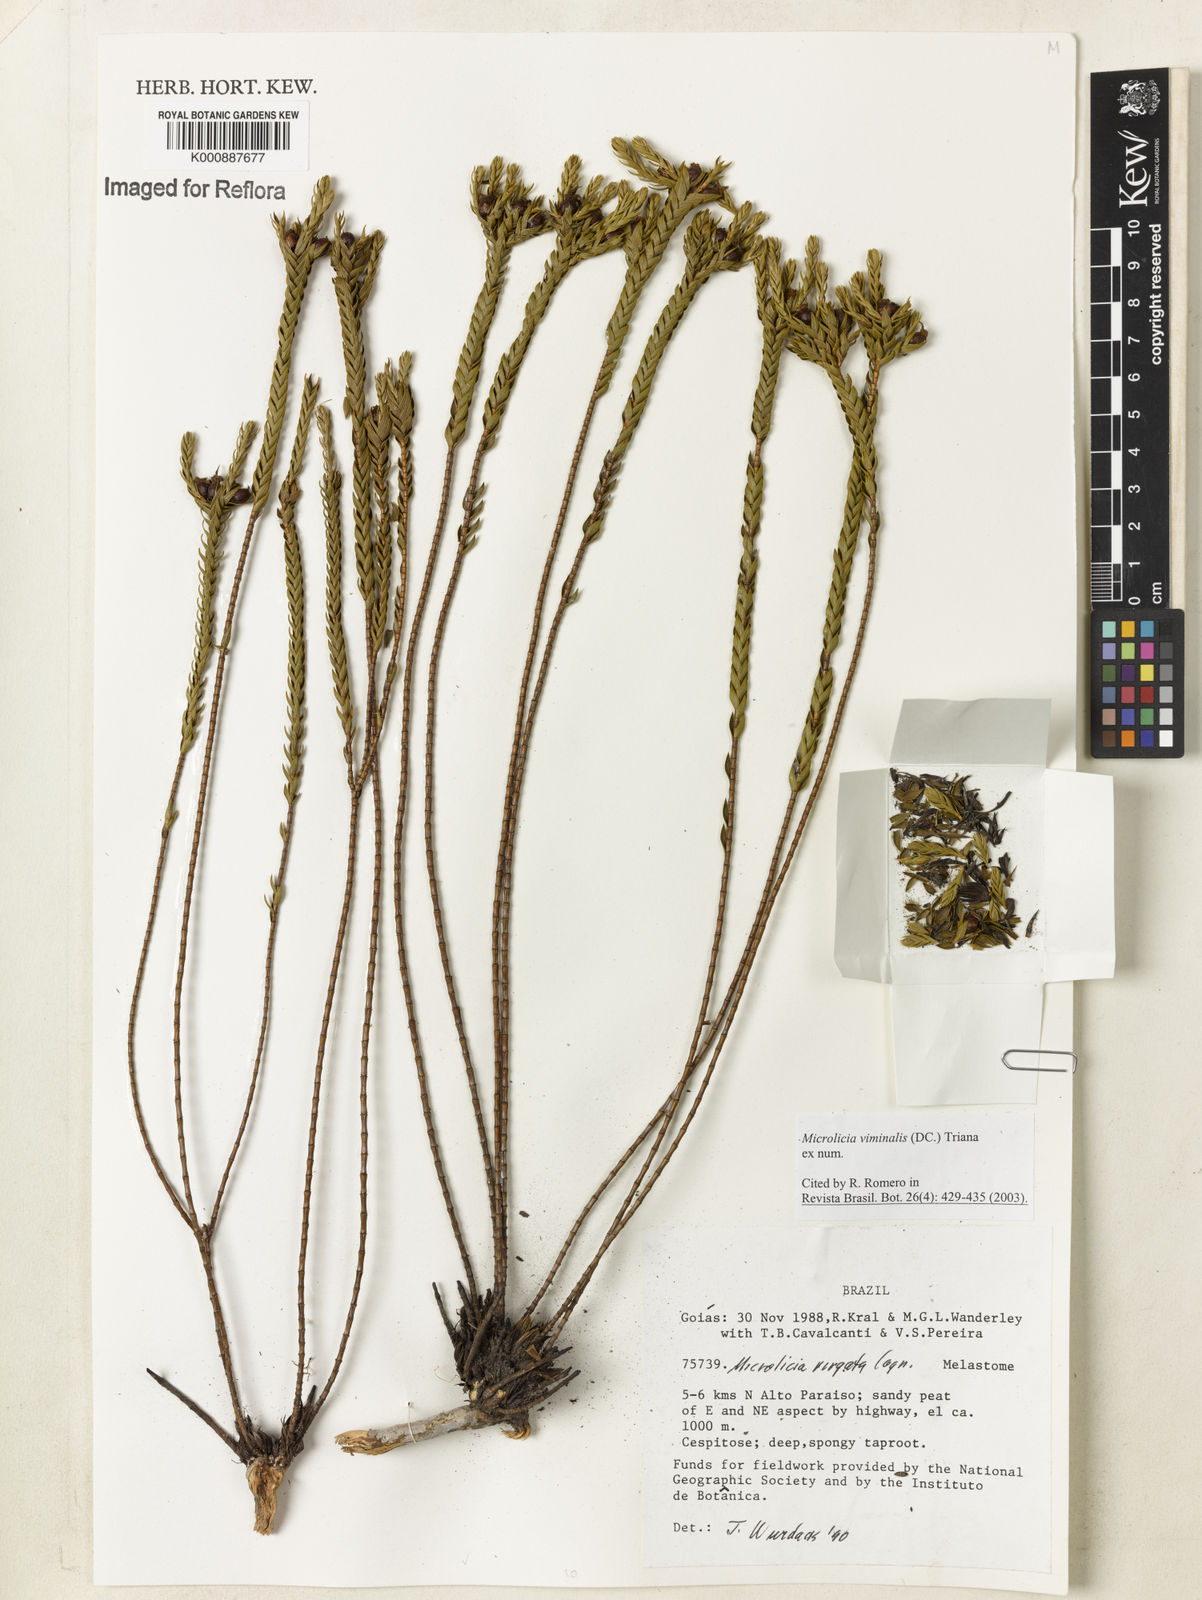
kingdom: Plantae
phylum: Tracheophyta
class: Magnoliopsida
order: Myrtales
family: Melastomataceae
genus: Microlicia
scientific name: Microlicia viminalis
